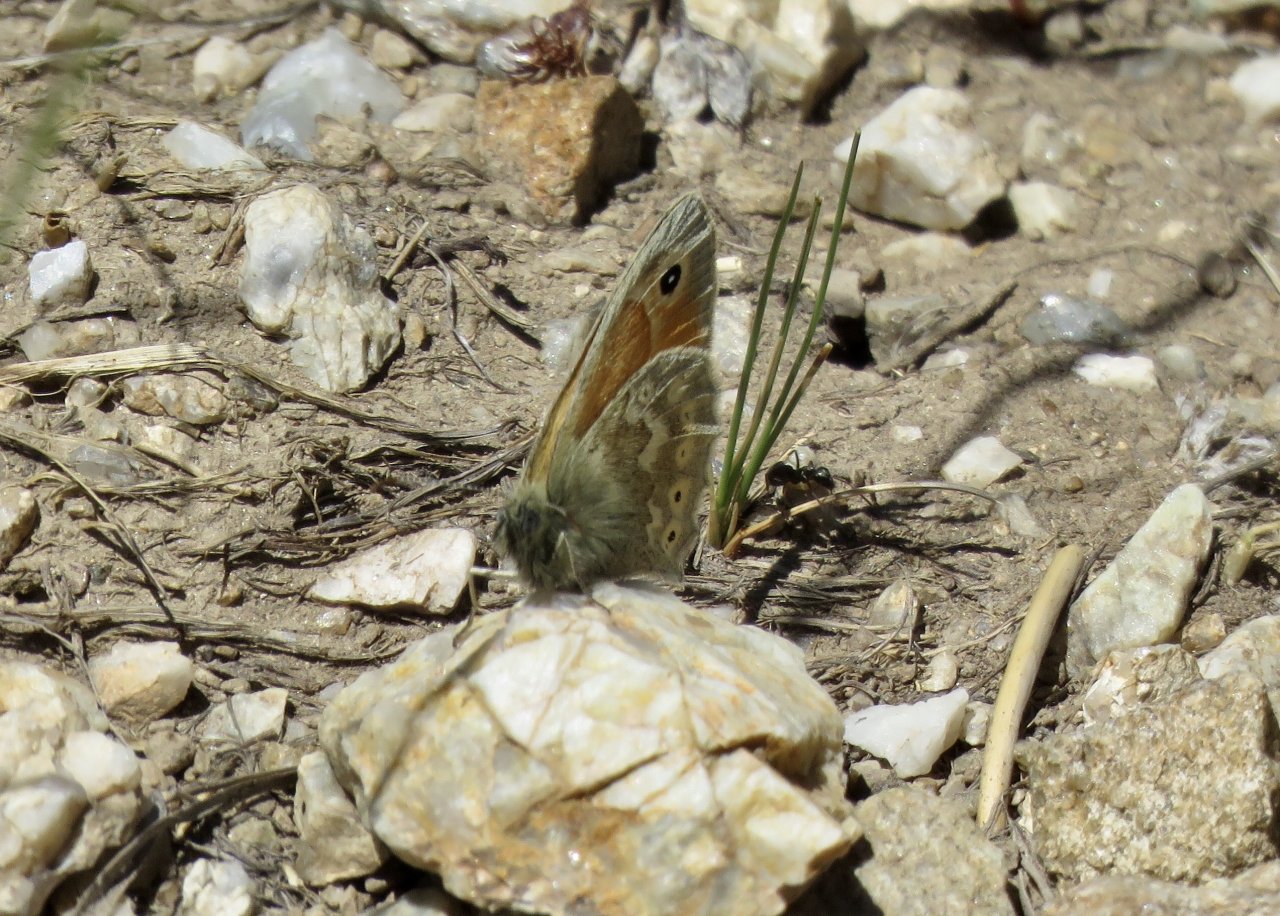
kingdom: Animalia
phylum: Arthropoda
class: Insecta
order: Lepidoptera
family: Nymphalidae
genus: Coenonympha
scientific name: Coenonympha tullia
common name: Large Heath
